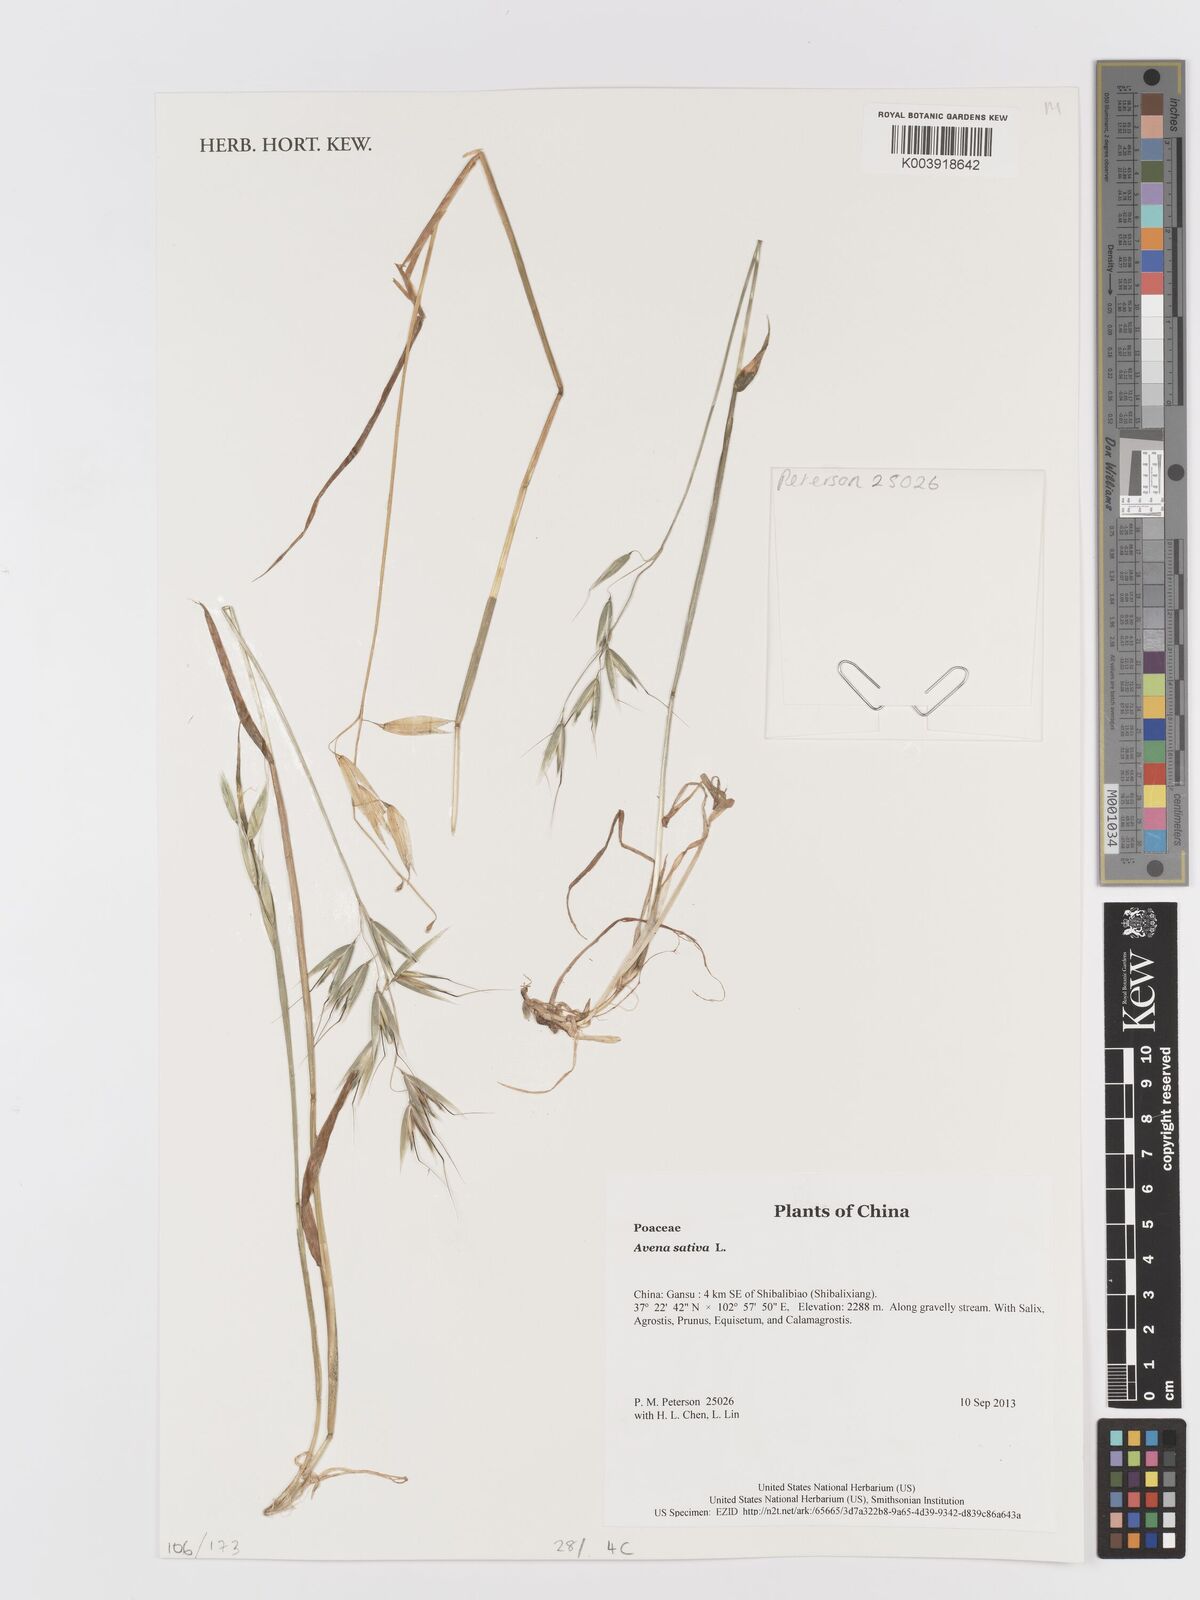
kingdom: Plantae
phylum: Tracheophyta
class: Liliopsida
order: Poales
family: Poaceae
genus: Avena
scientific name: Avena sativa
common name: Oat
